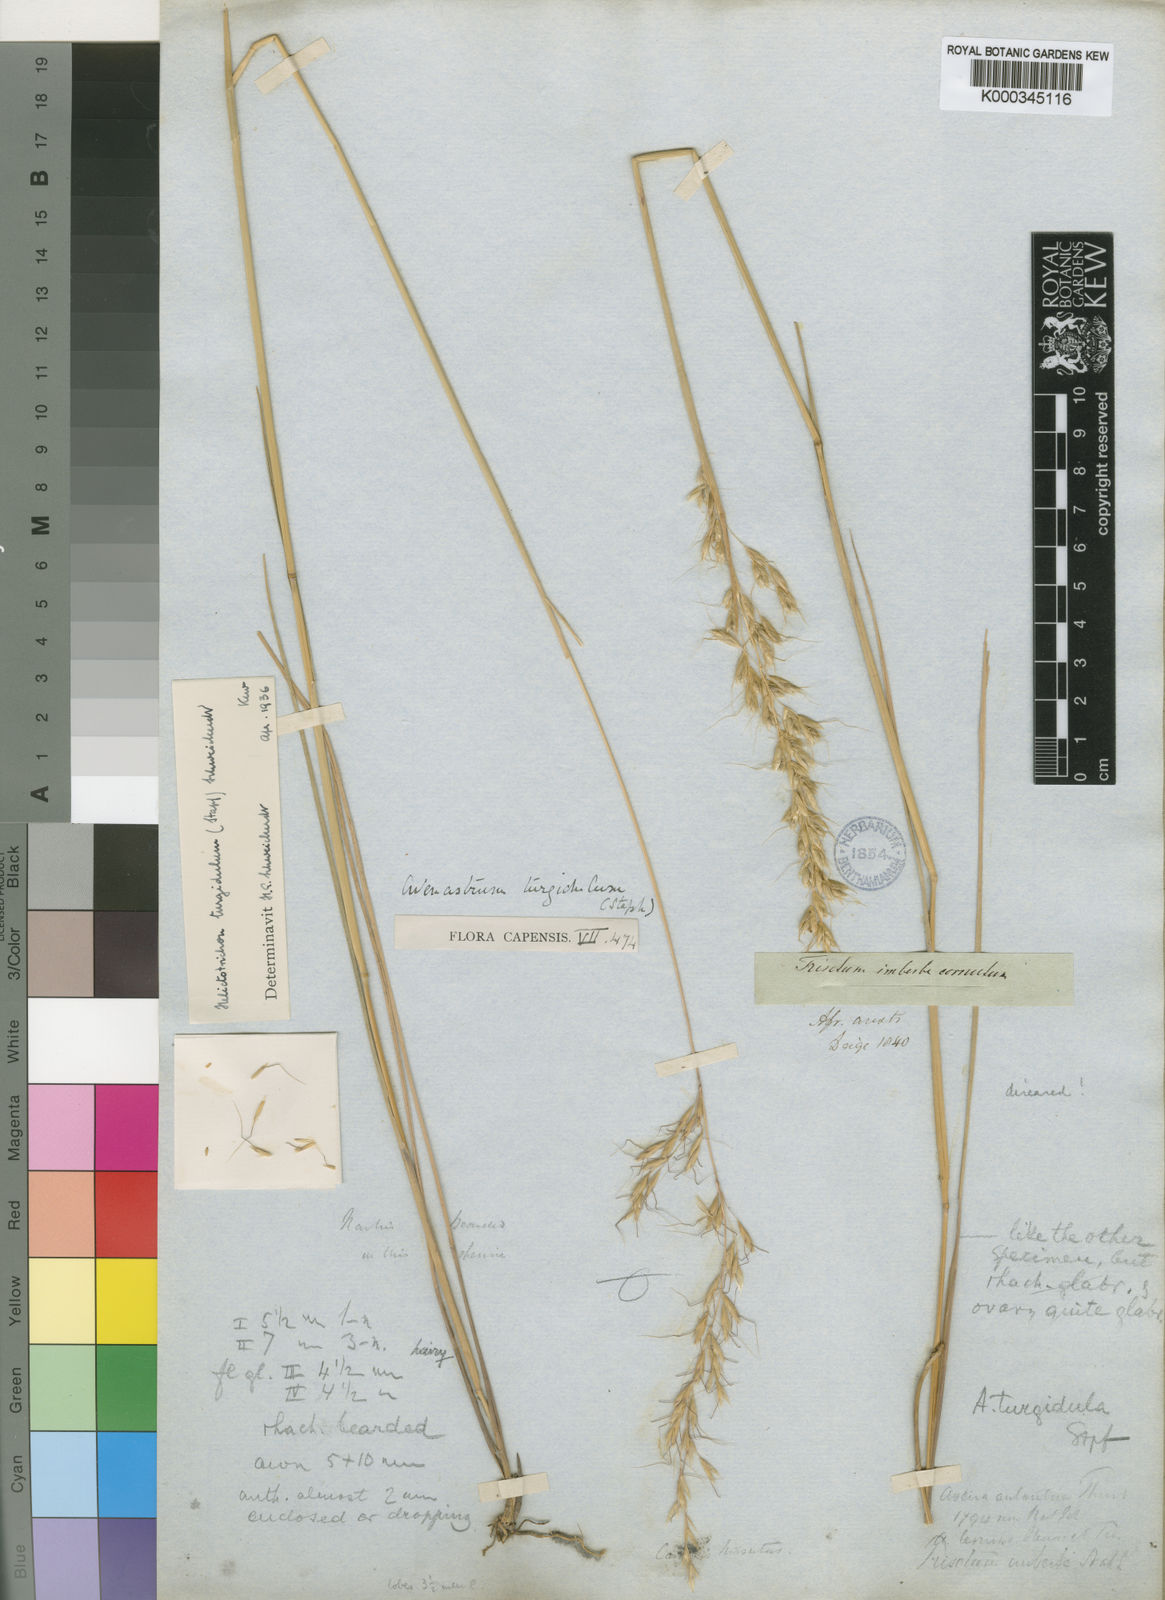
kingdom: Plantae
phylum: Tracheophyta
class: Liliopsida
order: Poales
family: Poaceae
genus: Trisetopsis
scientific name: Trisetopsis imberbis
